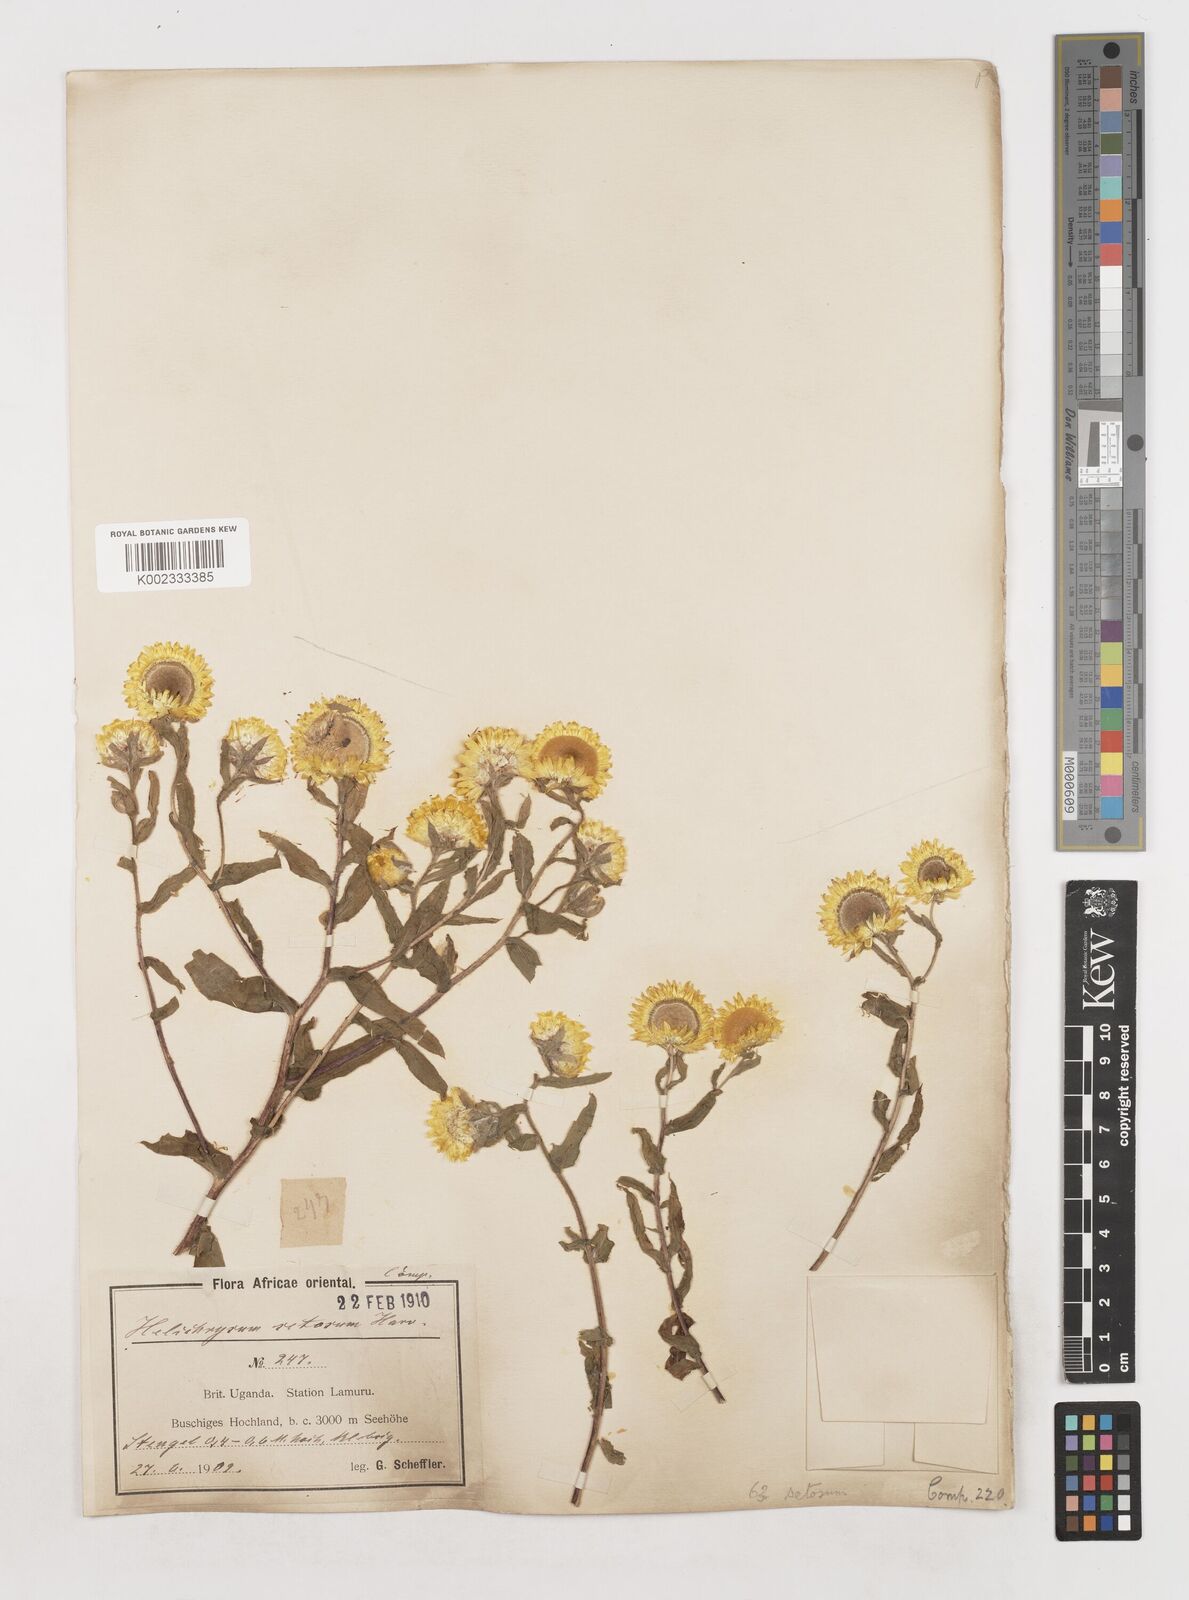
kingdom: Plantae
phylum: Tracheophyta
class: Magnoliopsida
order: Asterales
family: Asteraceae
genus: Helichrysum
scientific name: Helichrysum setosum
